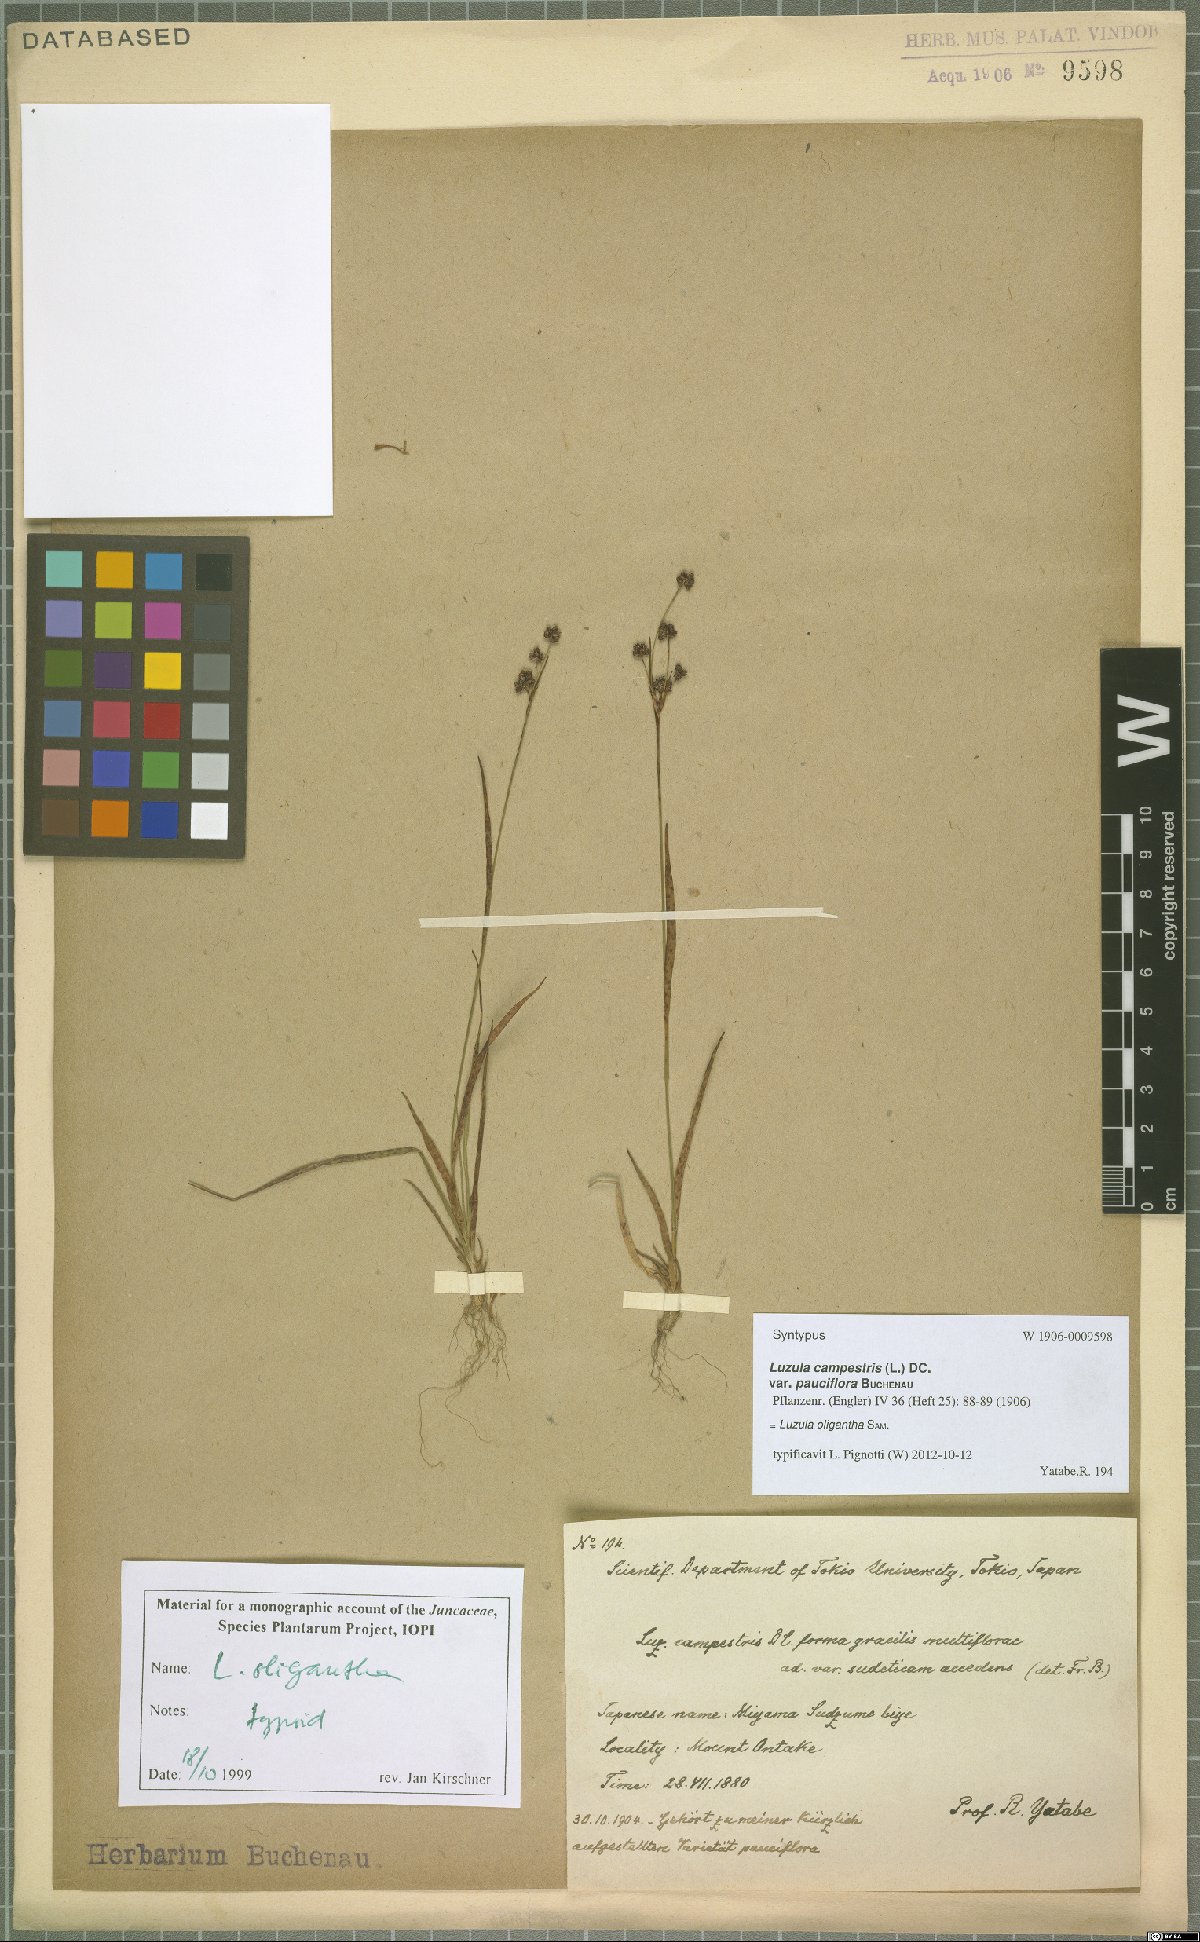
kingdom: Plantae
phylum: Tracheophyta
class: Liliopsida
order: Poales
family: Juncaceae
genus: Luzula
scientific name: Luzula oligantha
